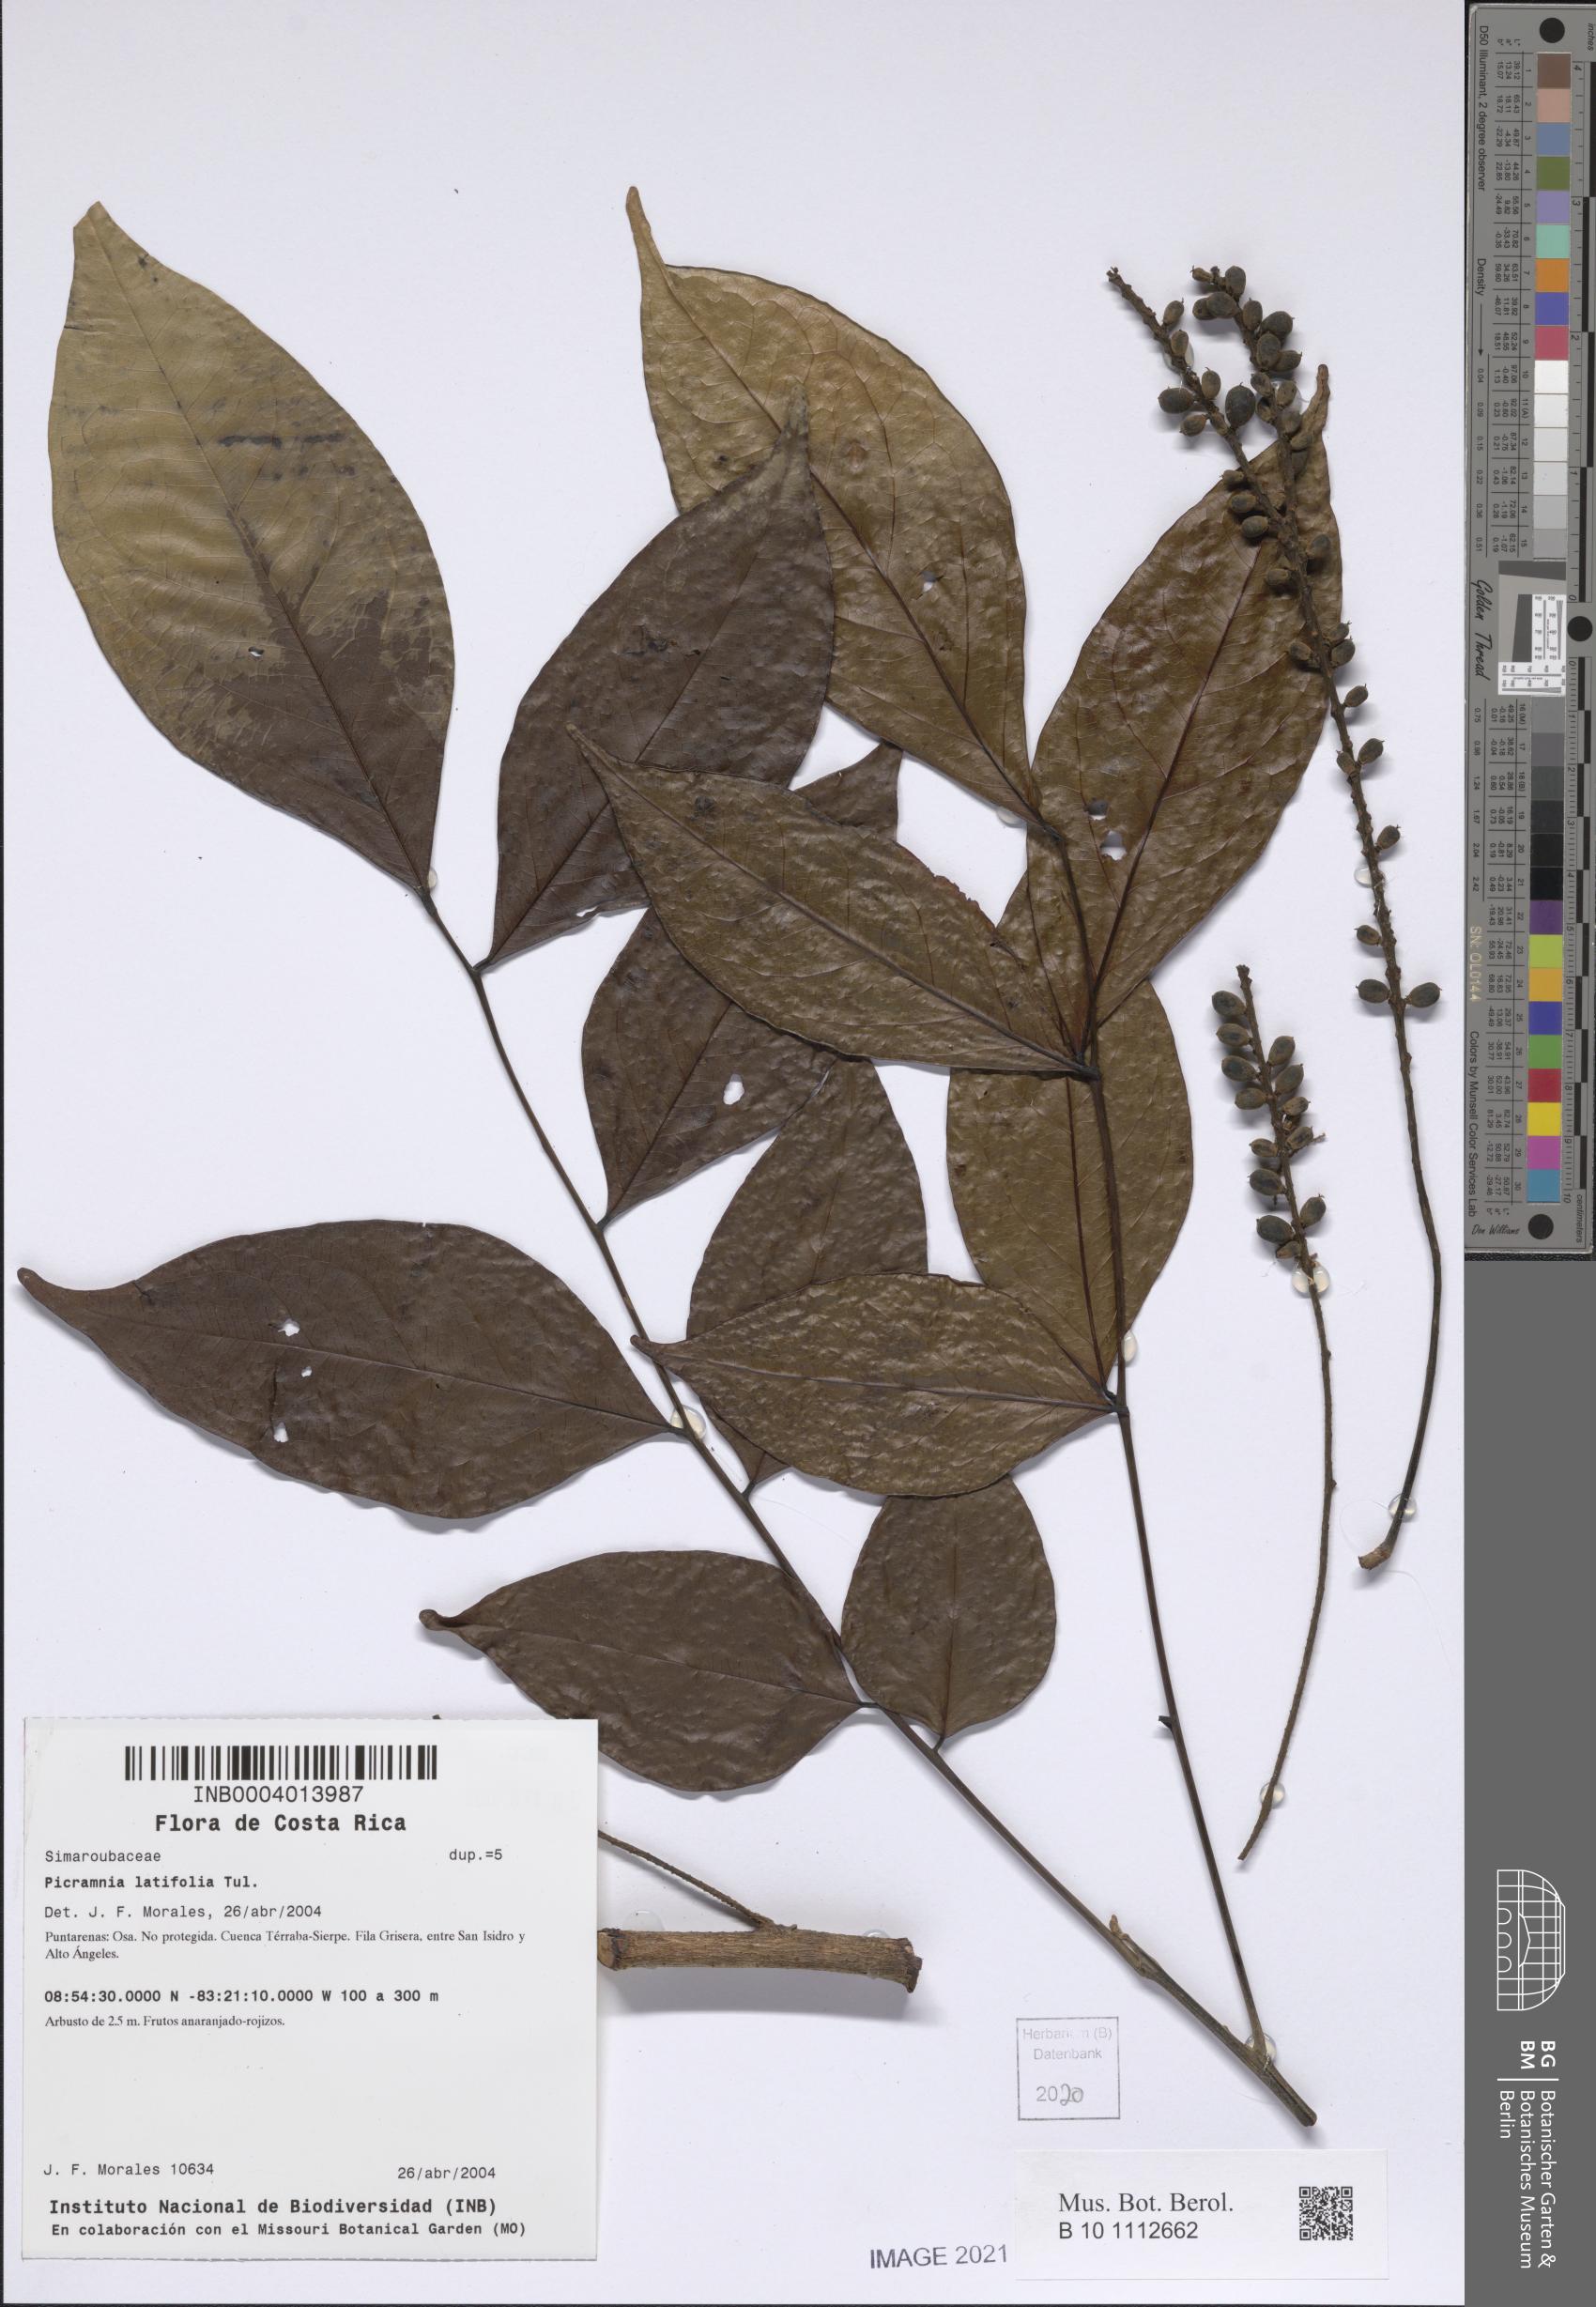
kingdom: Plantae
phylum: Tracheophyta
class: Magnoliopsida
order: Picramniales
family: Picramniaceae
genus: Picramnia
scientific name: Picramnia latifolia
